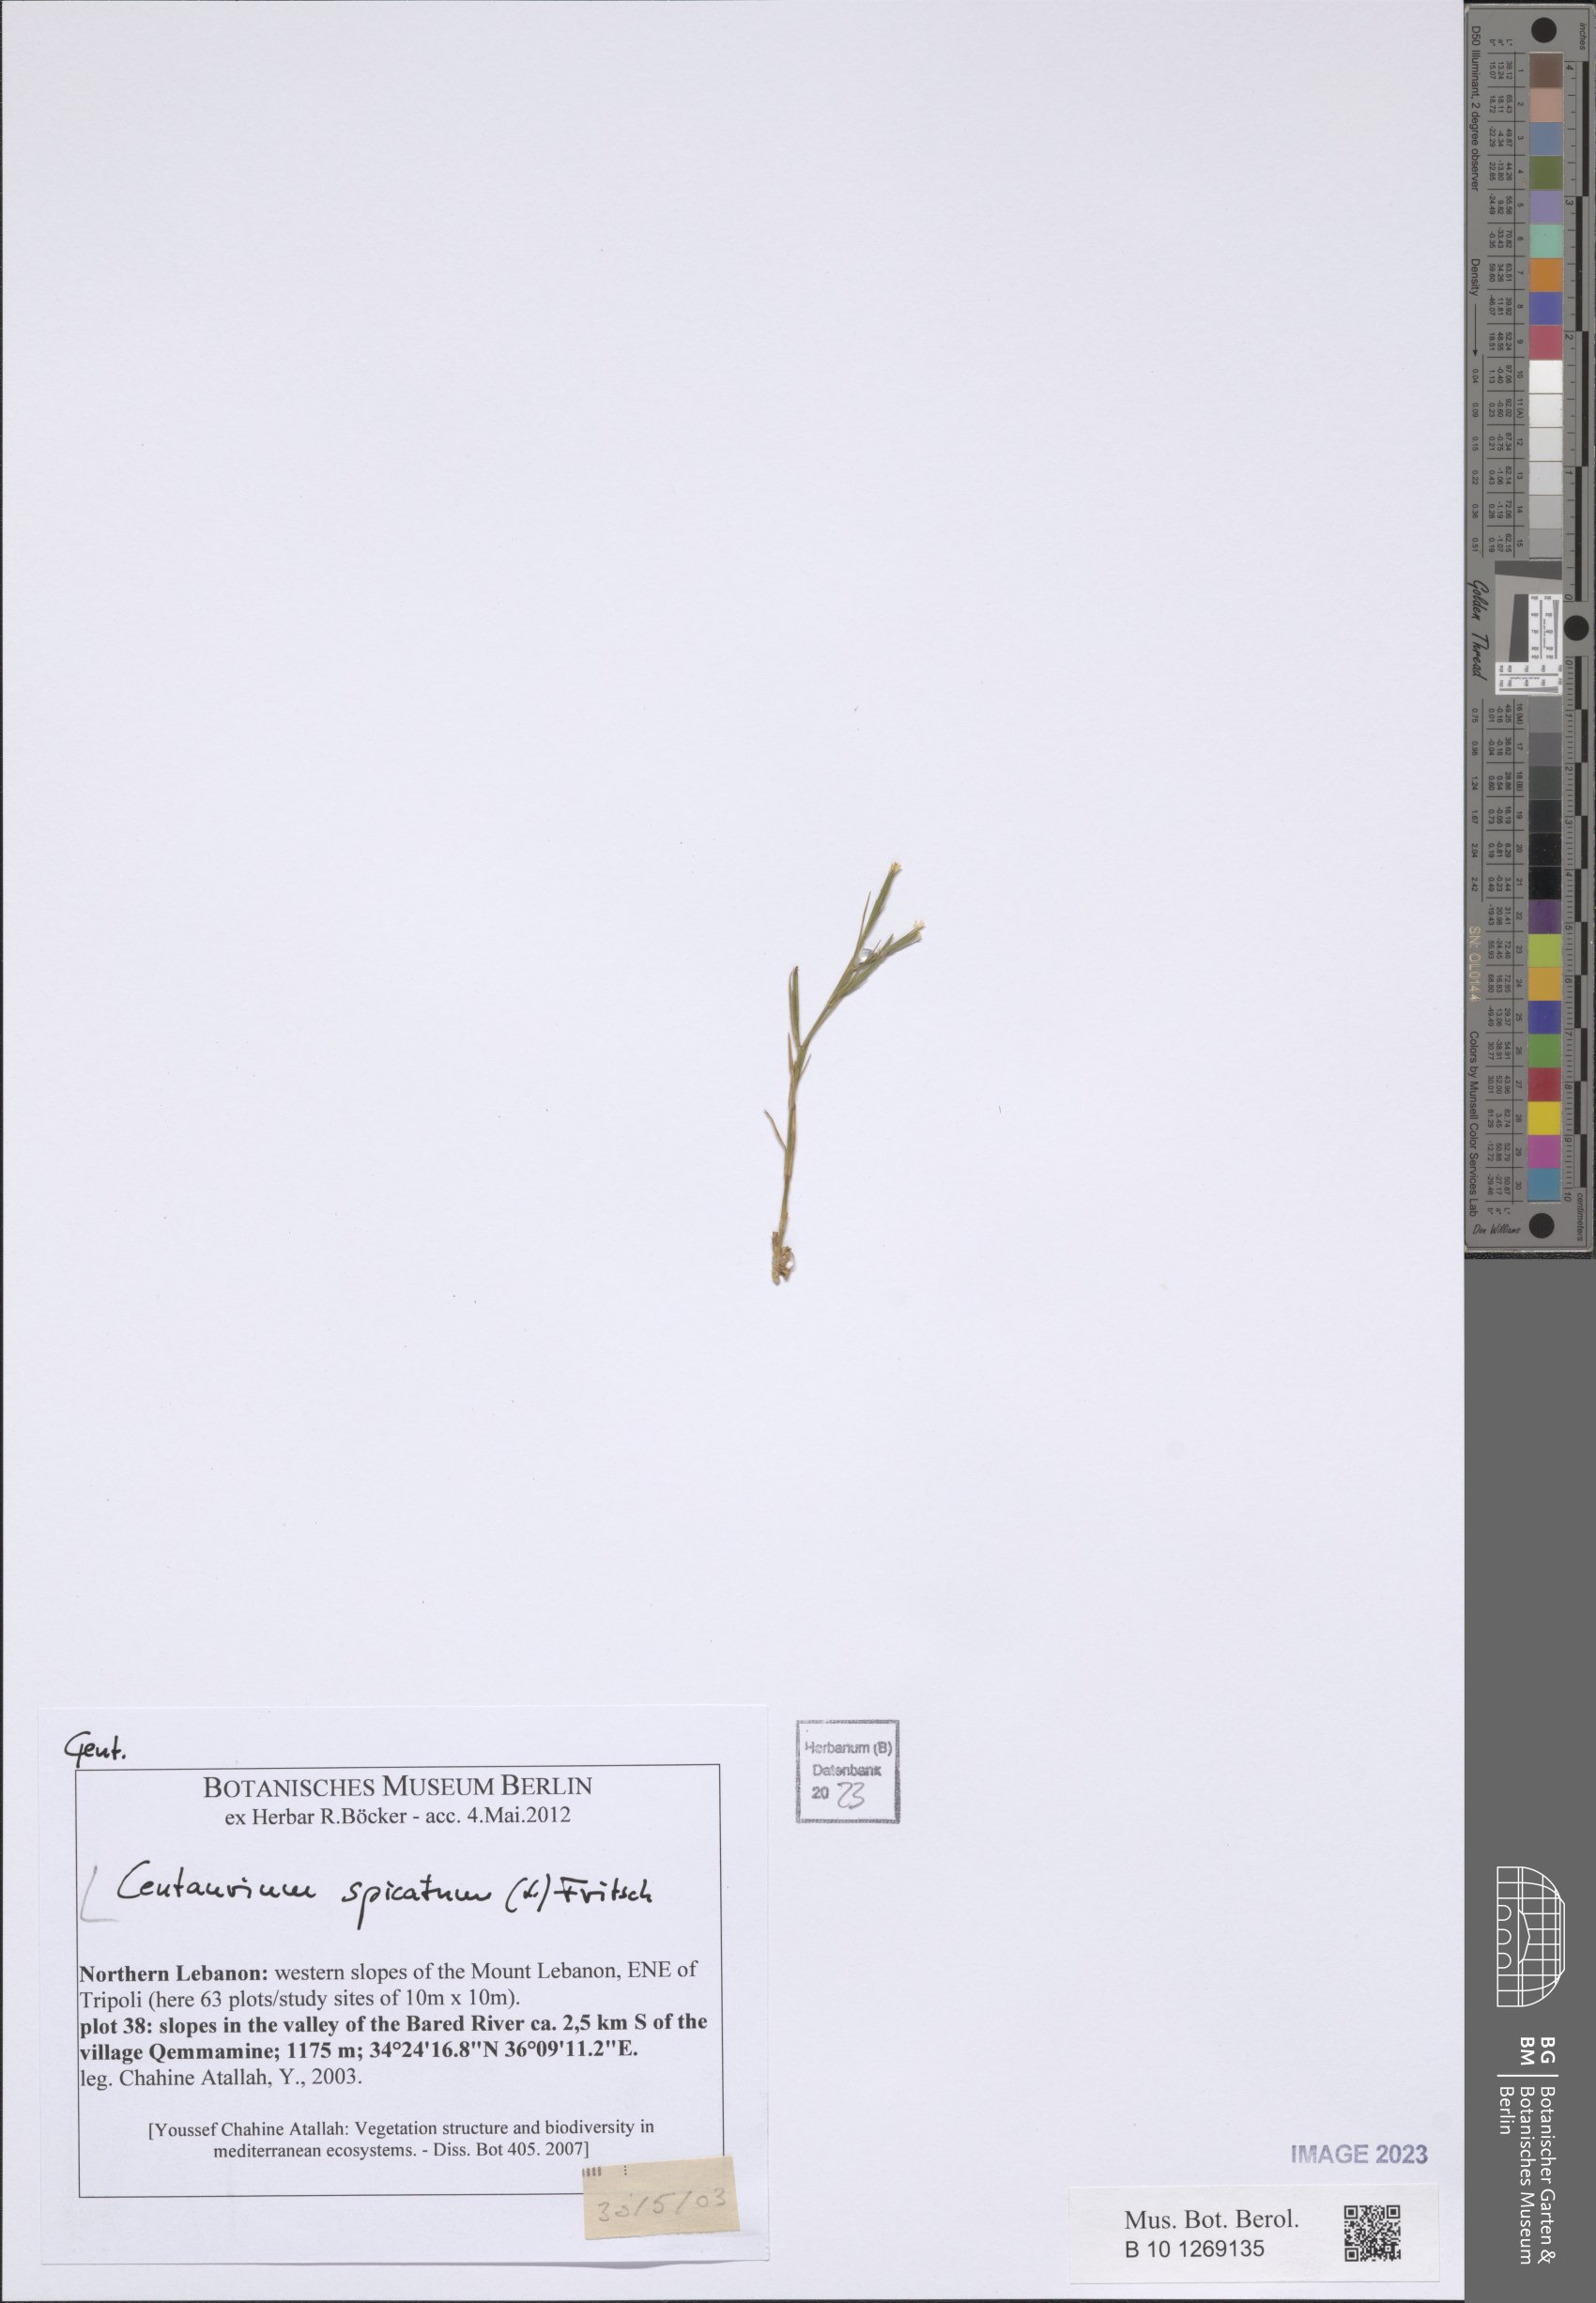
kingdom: Plantae
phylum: Tracheophyta
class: Magnoliopsida
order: Gentianales
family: Gentianaceae
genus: Schenkia
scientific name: Schenkia spicata
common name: Spiked centaury
